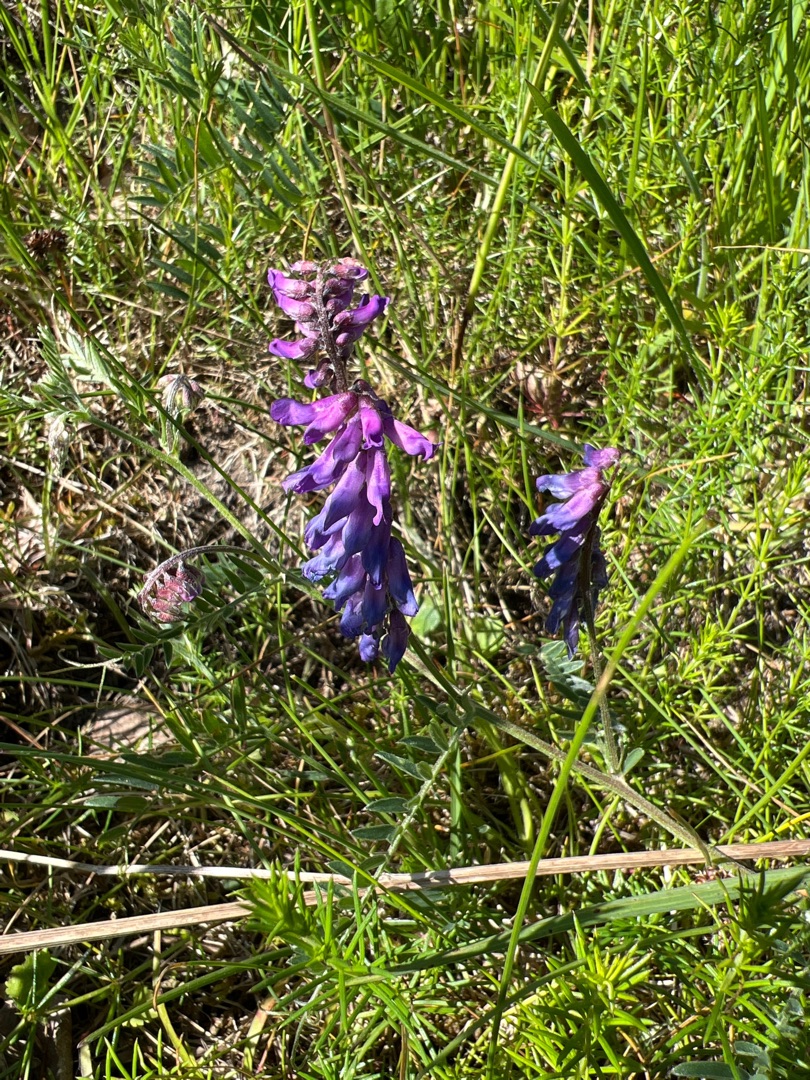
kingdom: Plantae
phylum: Tracheophyta
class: Magnoliopsida
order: Fabales
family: Fabaceae
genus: Vicia
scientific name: Vicia cracca
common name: Muse-vikke
